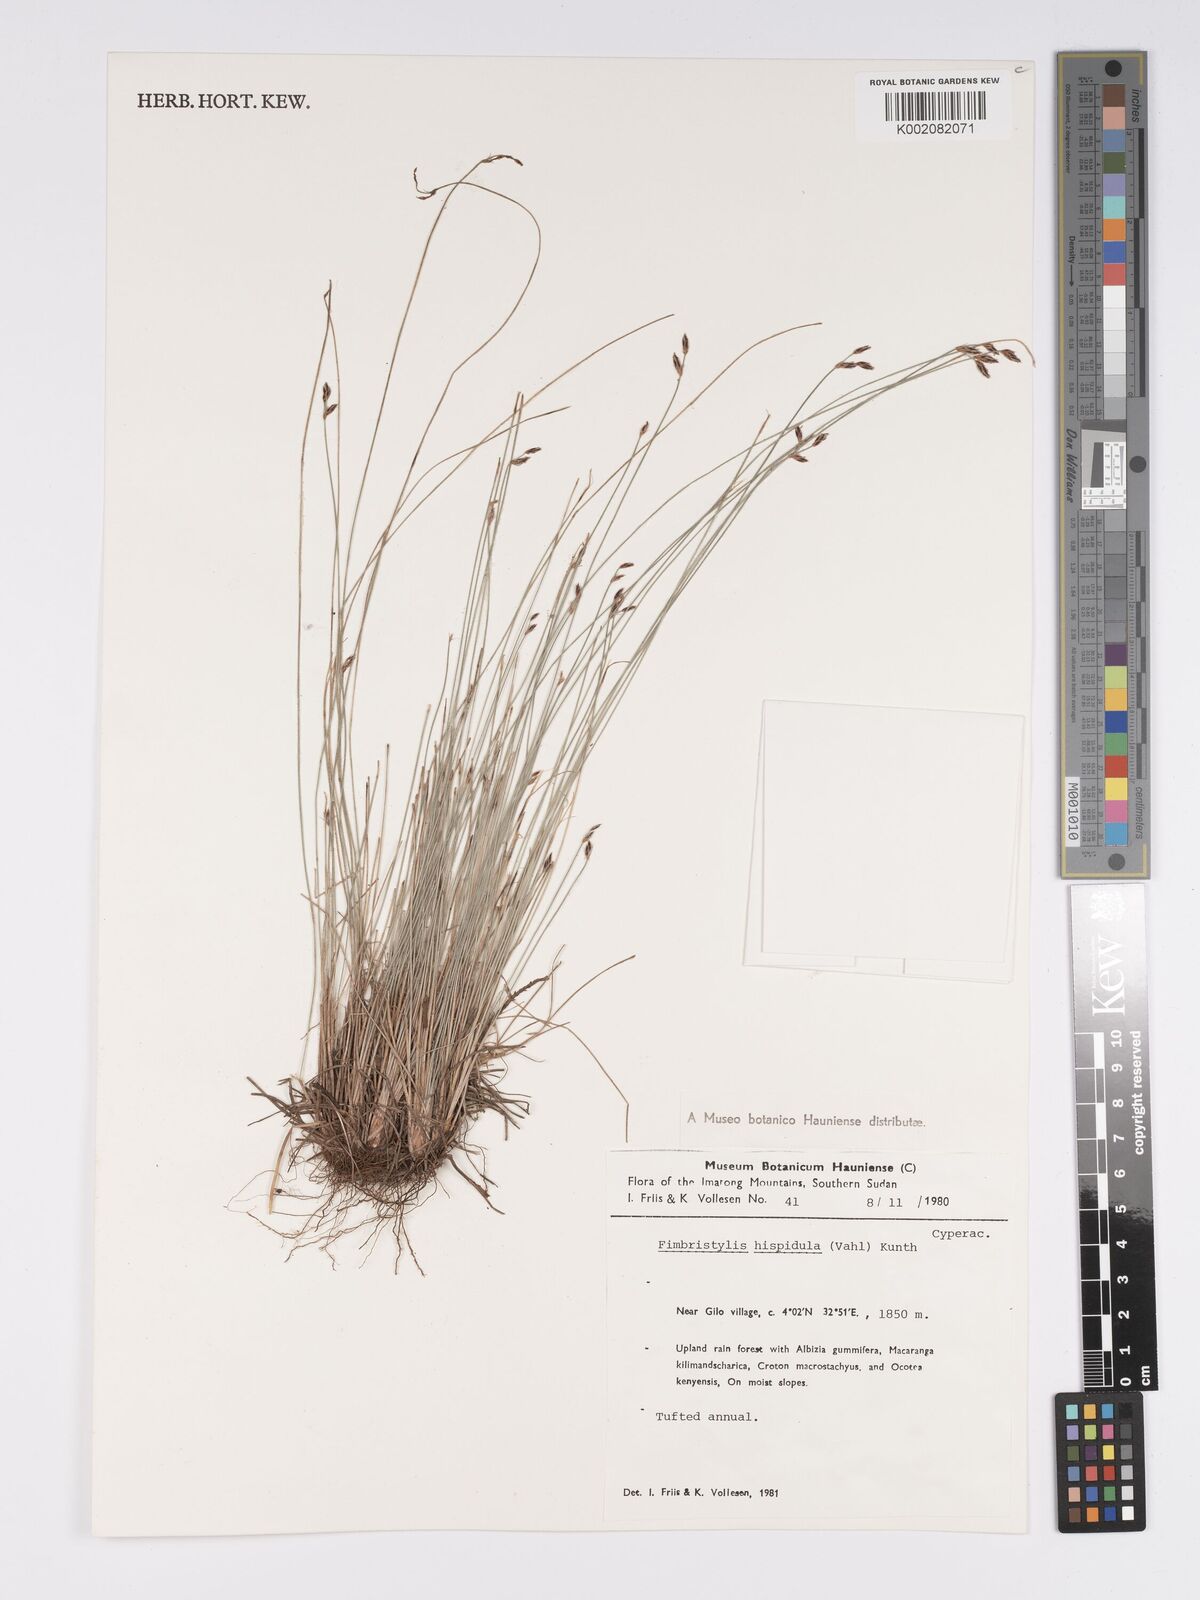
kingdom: Plantae
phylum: Tracheophyta
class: Liliopsida
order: Poales
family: Cyperaceae
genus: Bulbostylis
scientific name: Bulbostylis hispidula
